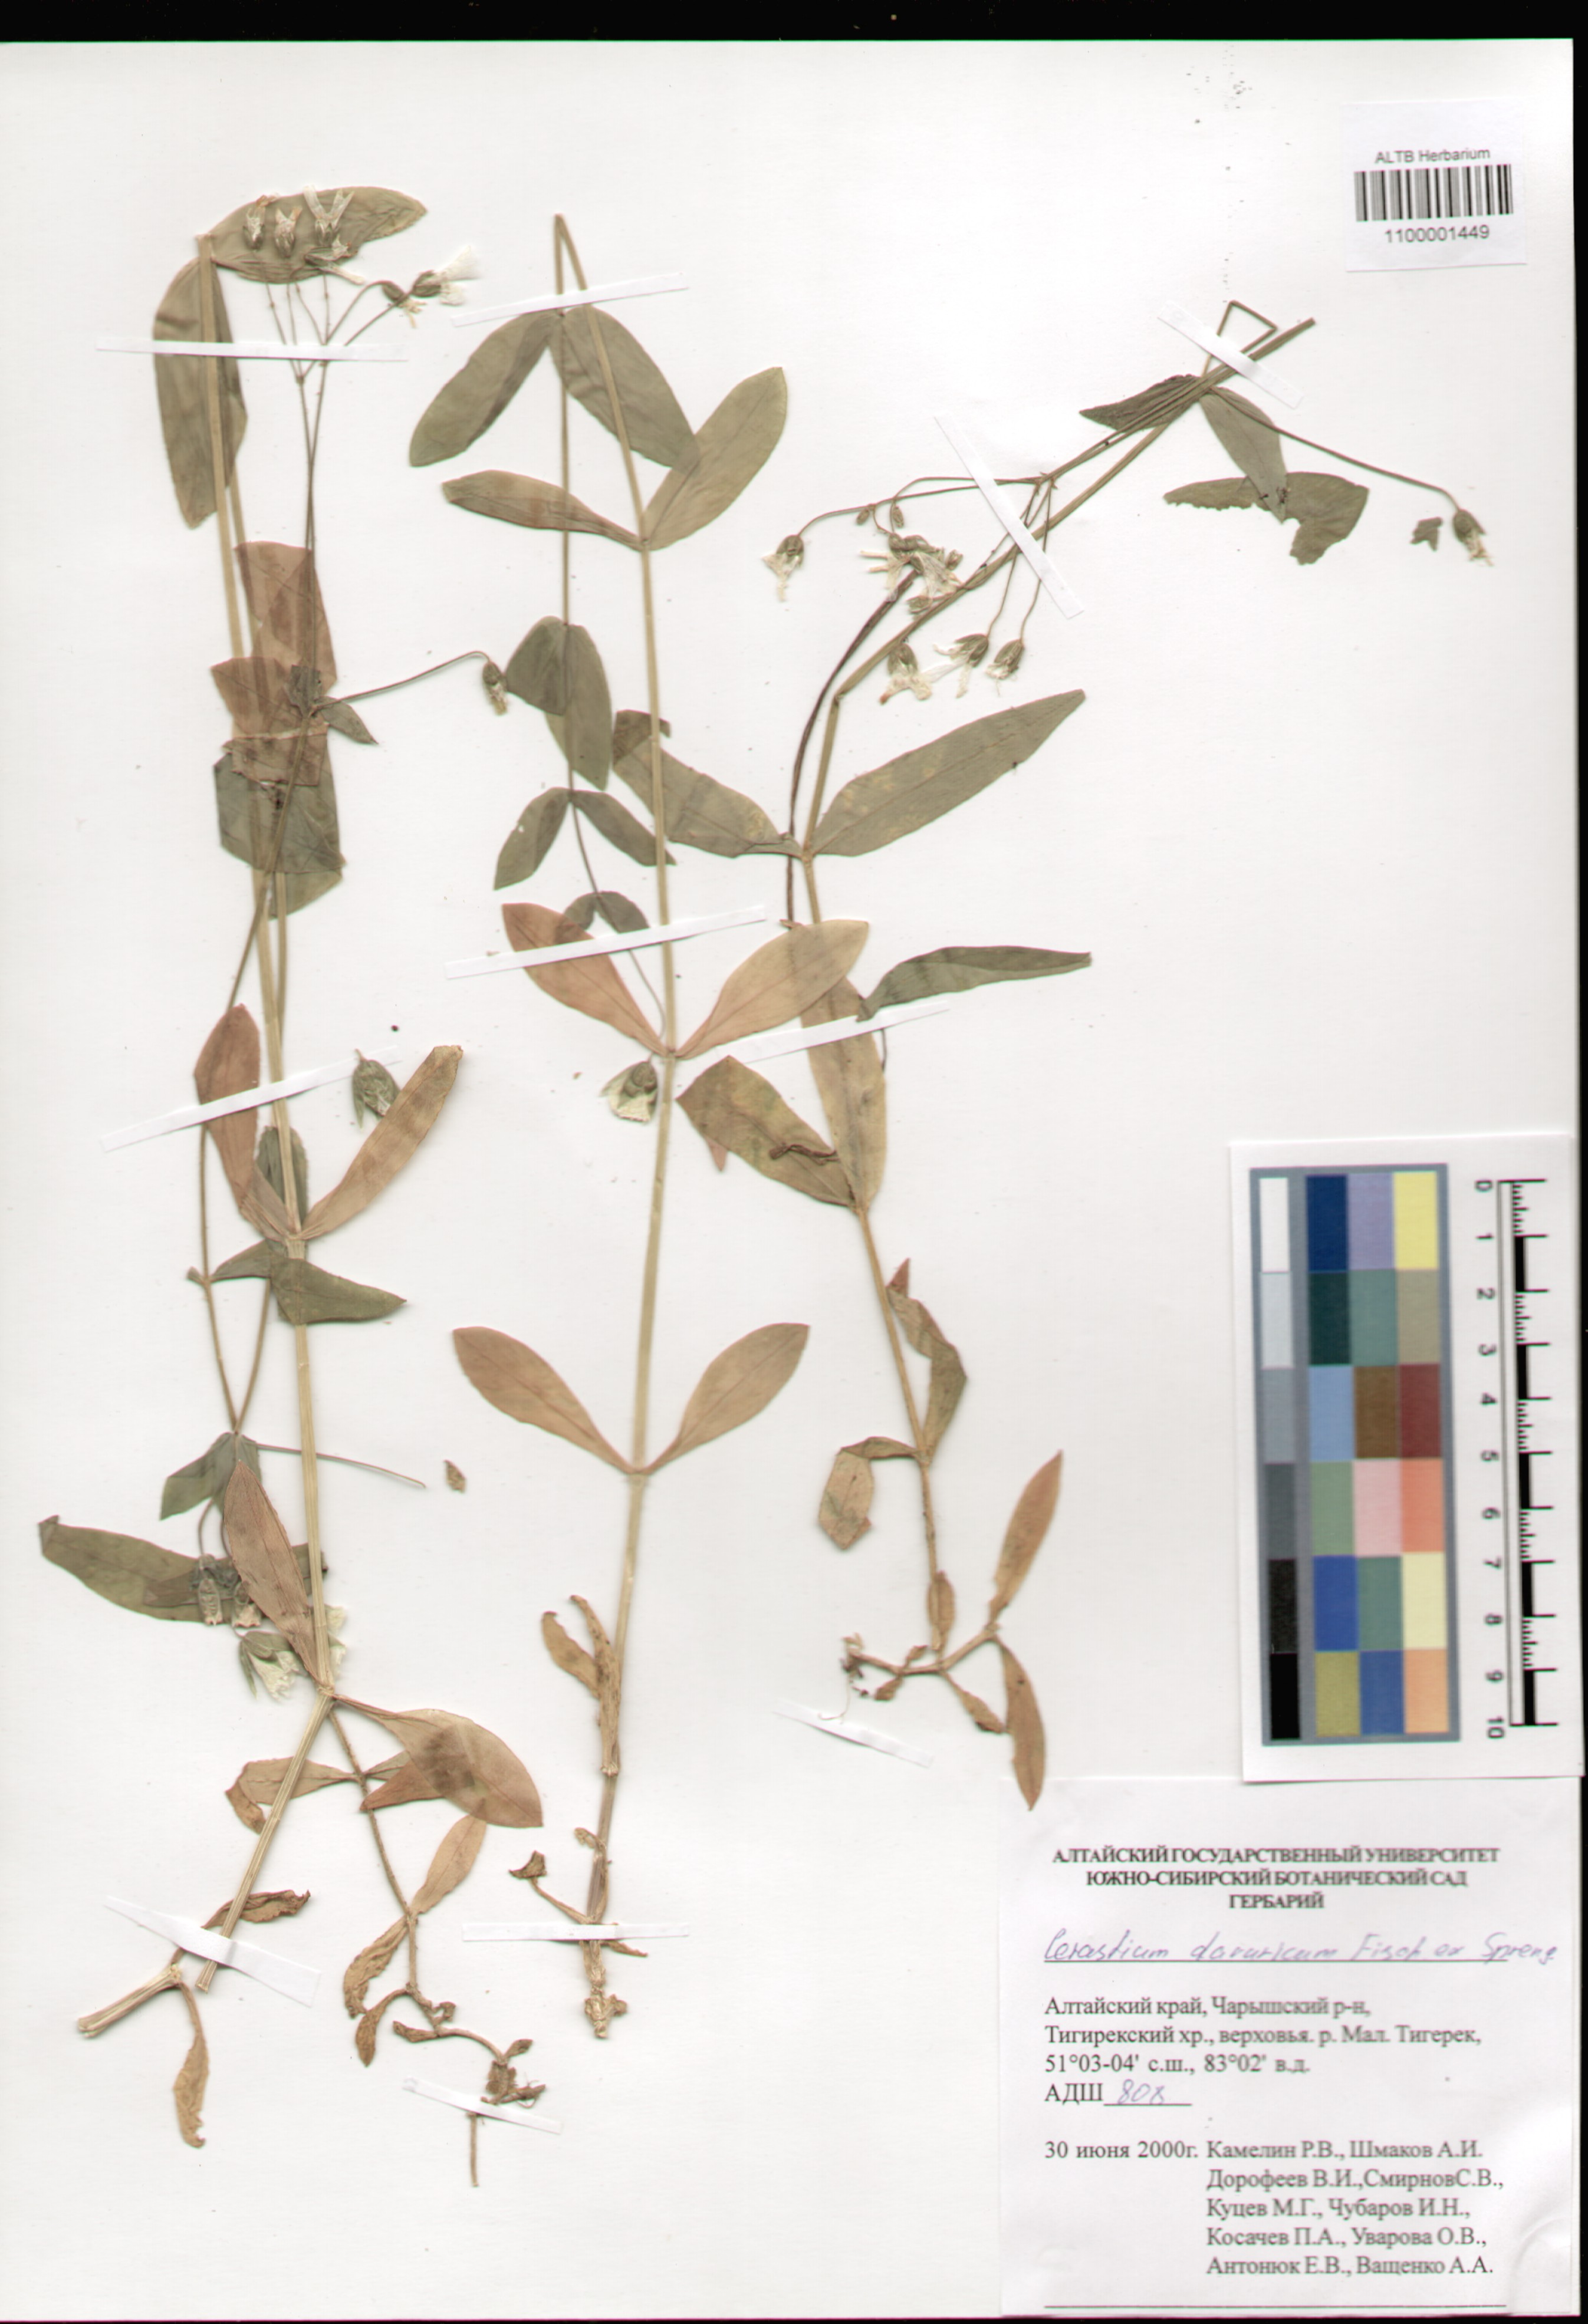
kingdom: Plantae
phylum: Tracheophyta
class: Magnoliopsida
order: Caryophyllales
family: Caryophyllaceae
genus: Dichodon
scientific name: Dichodon davuricum
